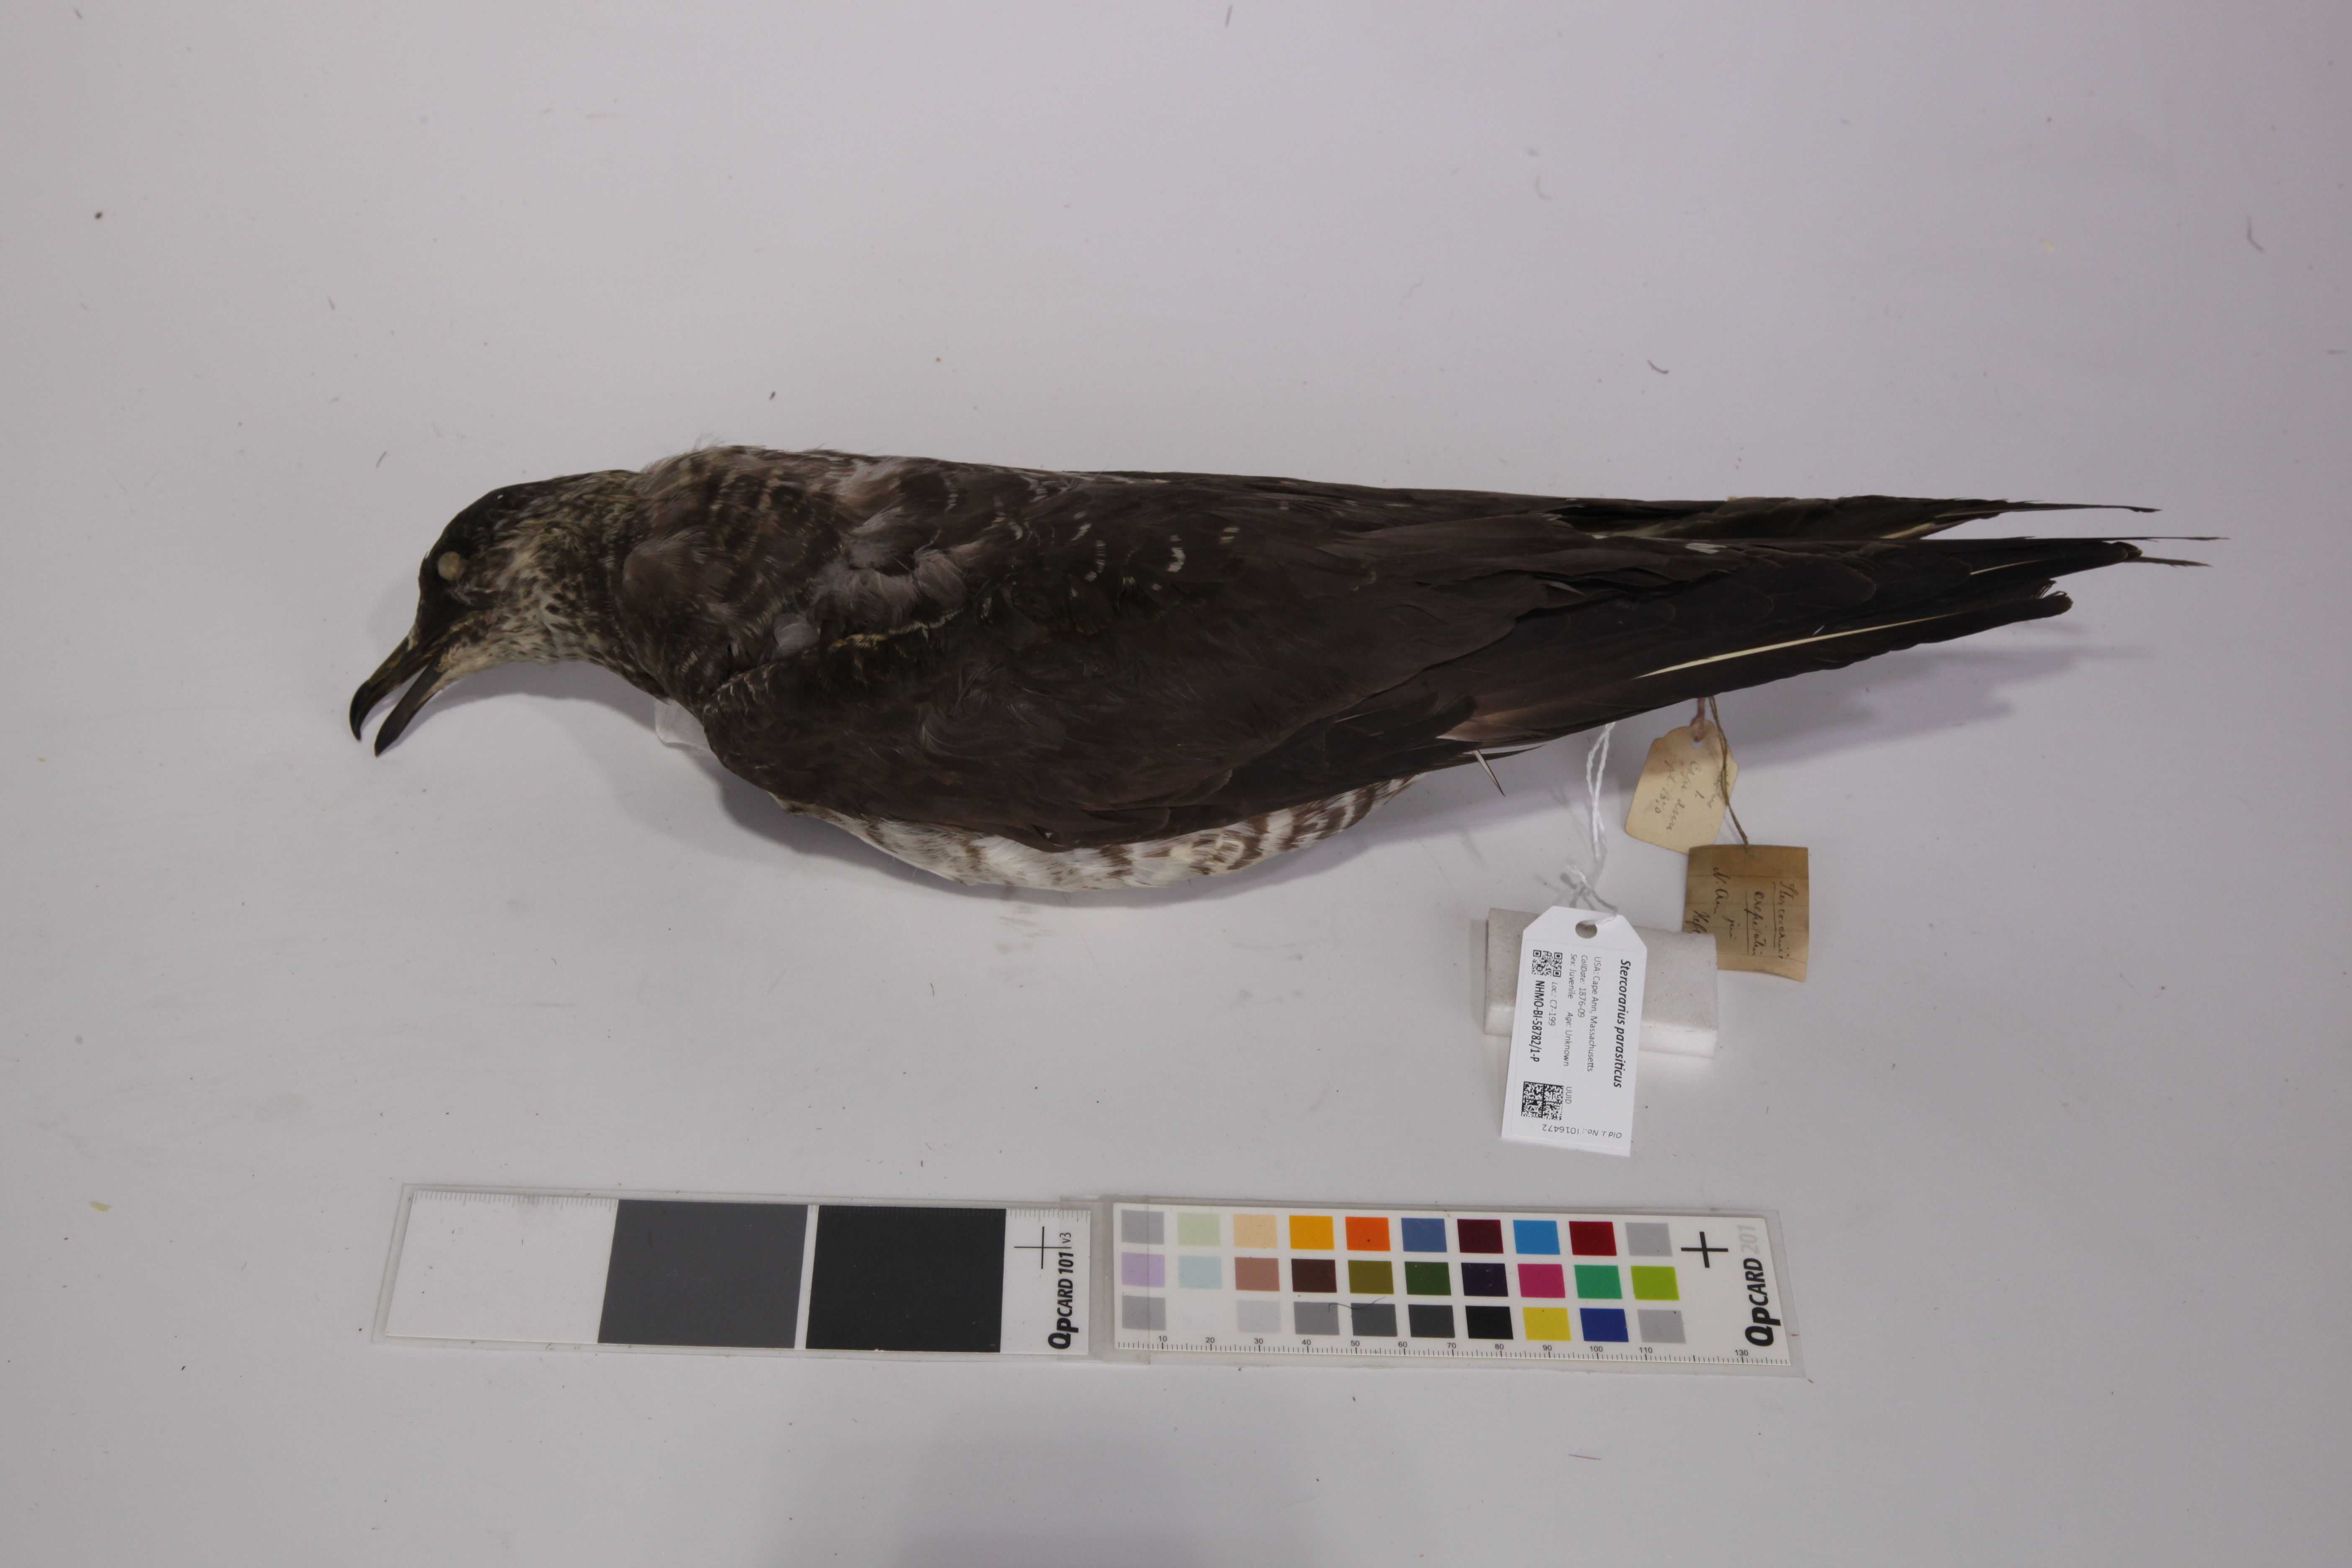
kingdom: Animalia
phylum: Chordata
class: Aves
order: Charadriiformes
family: Stercorariidae
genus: Stercorarius
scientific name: Stercorarius parasiticus
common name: Parasitic jaeger
